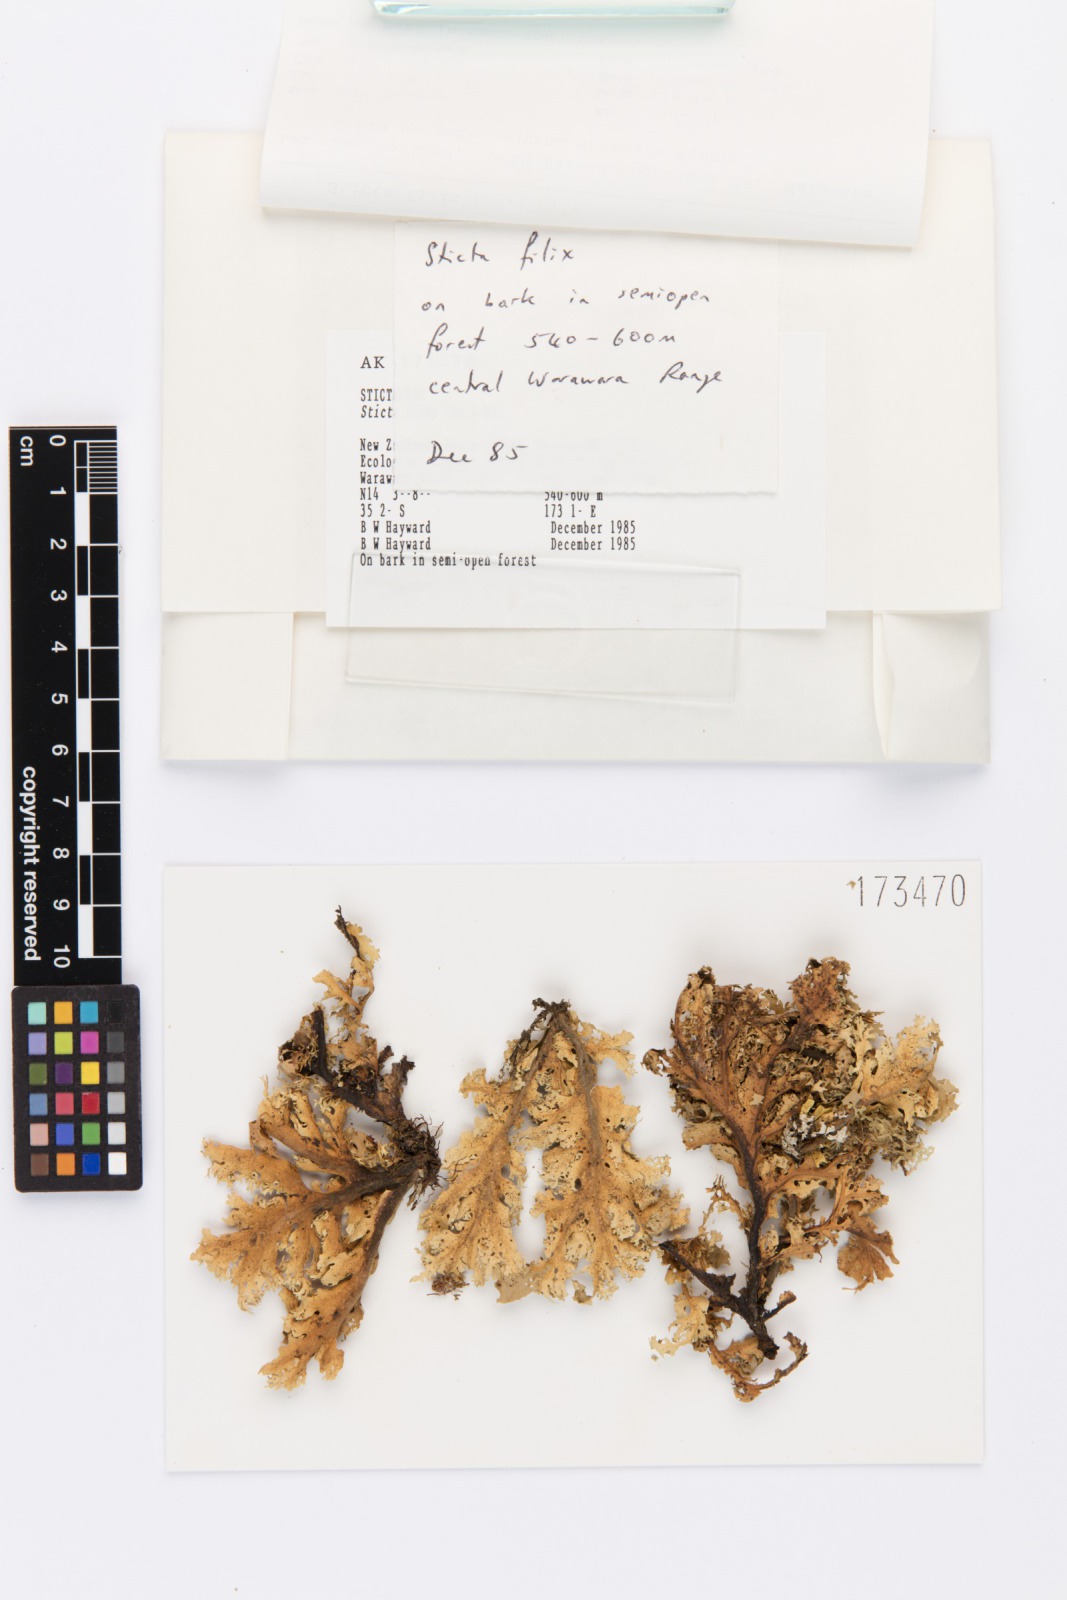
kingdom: Fungi
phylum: Ascomycota
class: Lecanoromycetes
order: Peltigerales
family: Lobariaceae
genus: Sticta
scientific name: Sticta filix
